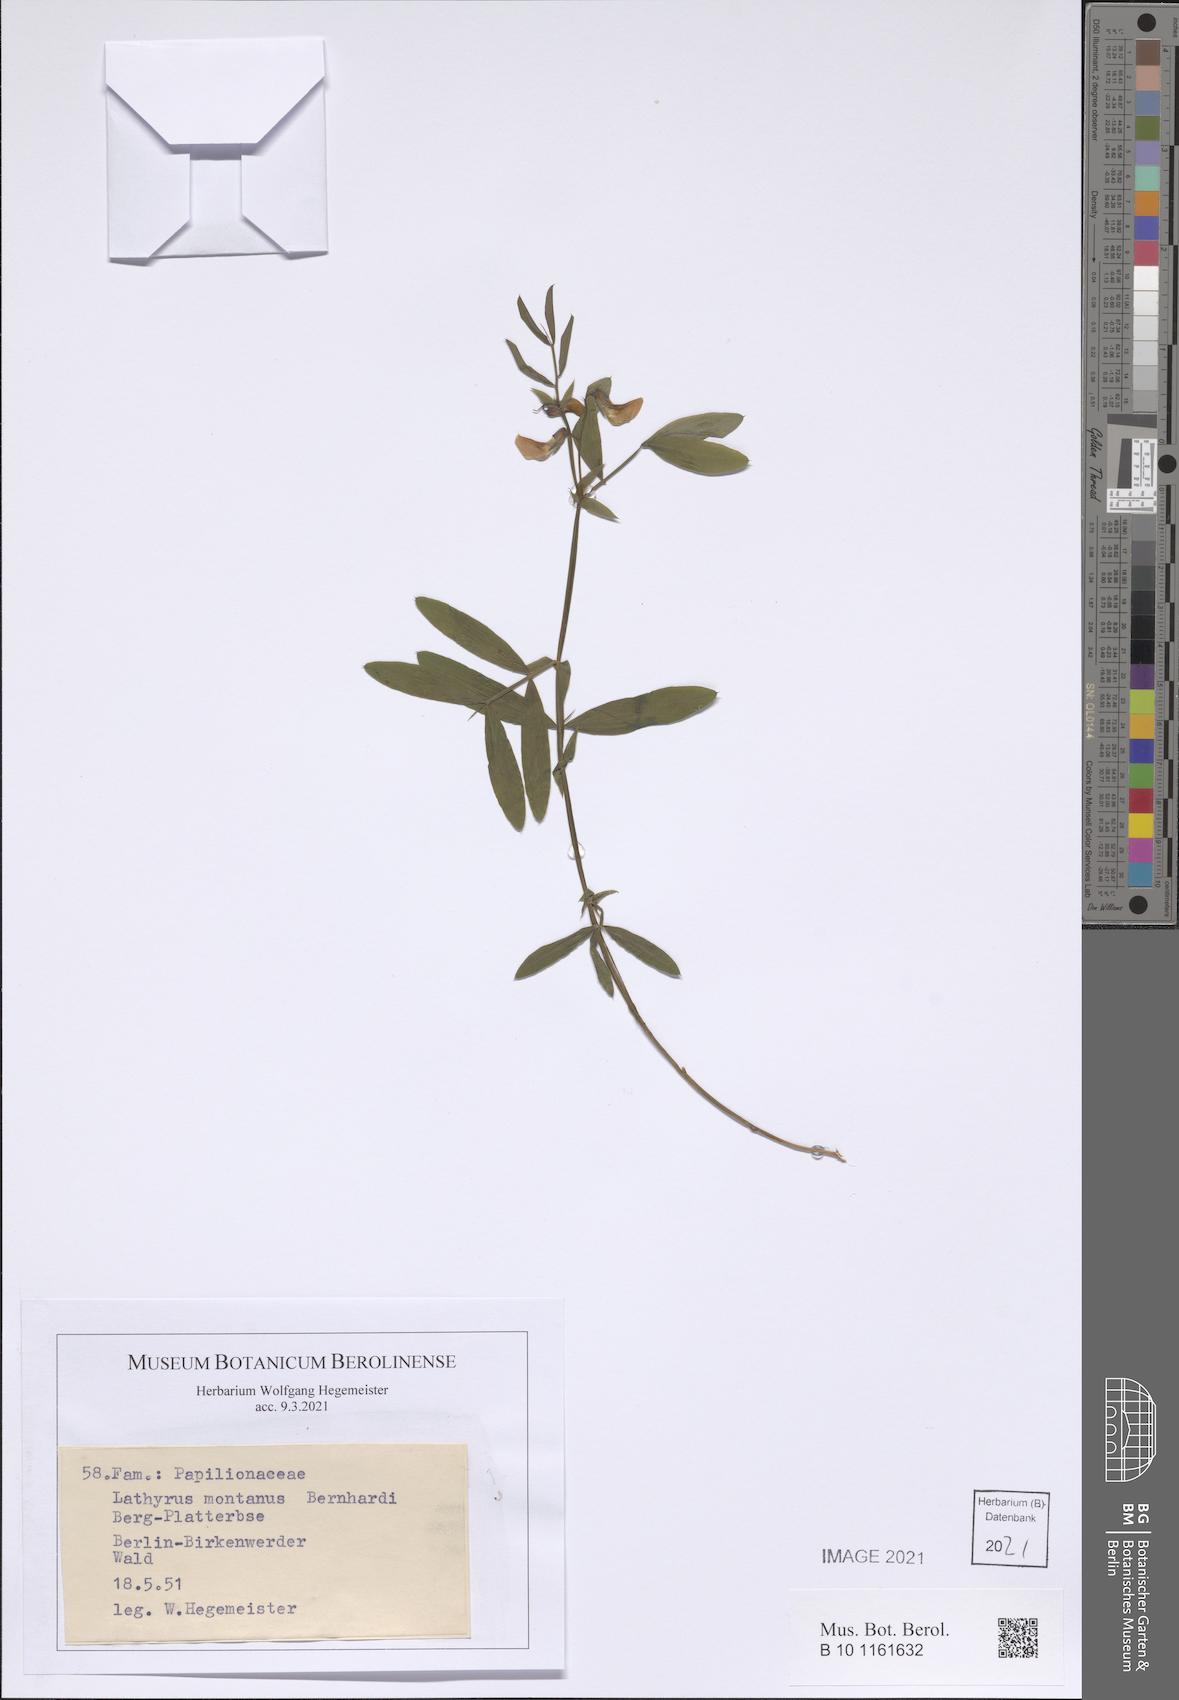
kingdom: Plantae
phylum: Tracheophyta
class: Magnoliopsida
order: Fabales
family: Fabaceae
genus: Lathyrus
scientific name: Lathyrus linifolius
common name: Bitter-vetch
